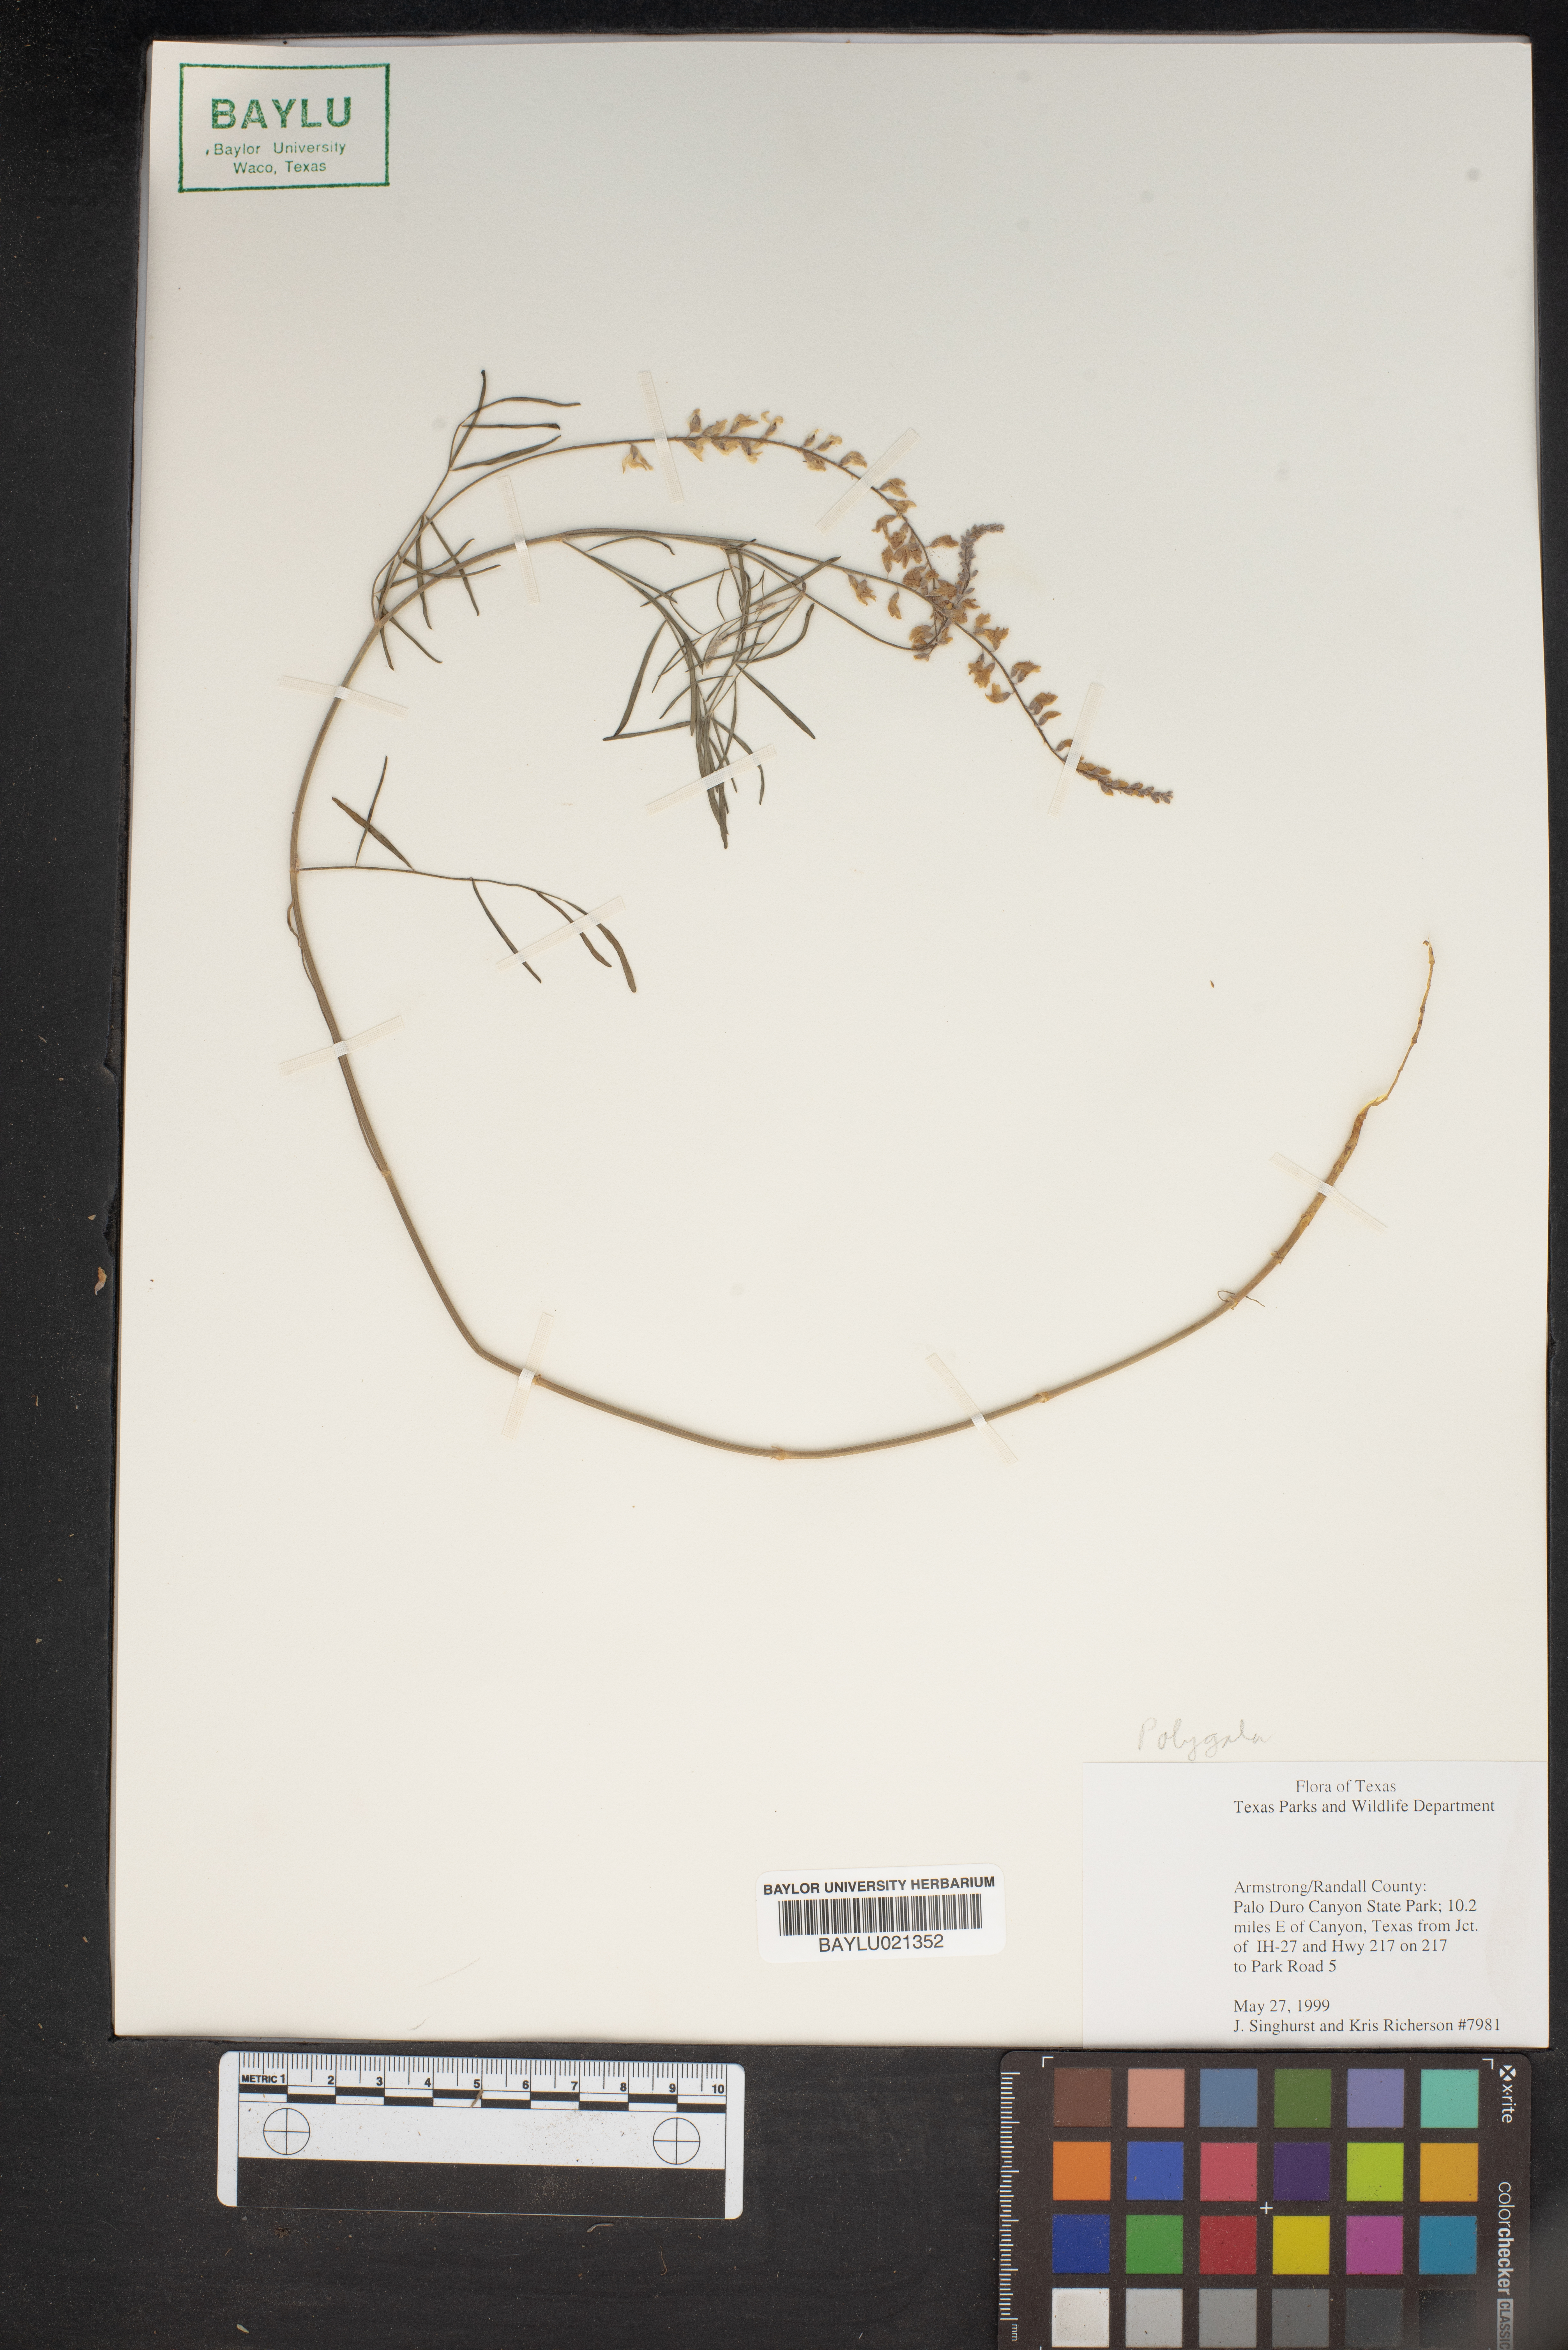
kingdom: Plantae
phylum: Tracheophyta
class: Magnoliopsida
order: Fabales
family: Polygalaceae
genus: Polygala
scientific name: Polygala
